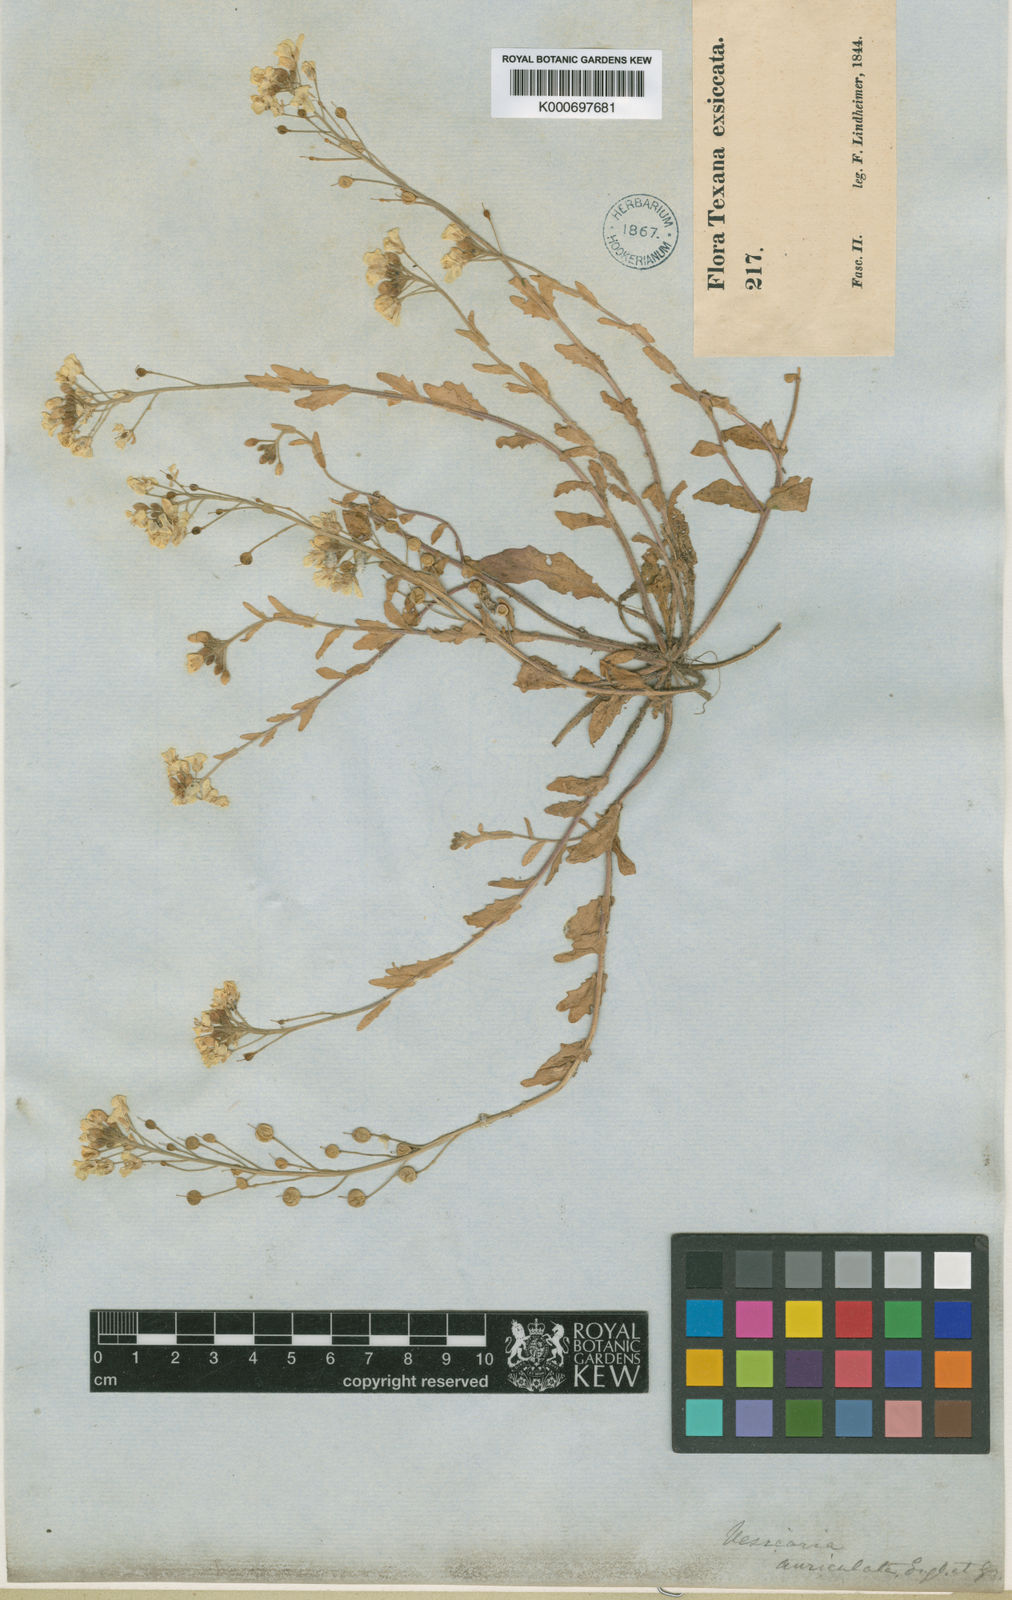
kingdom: Plantae
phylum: Tracheophyta
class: Magnoliopsida
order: Brassicales
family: Brassicaceae
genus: Paysonia
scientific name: Paysonia auriculata
